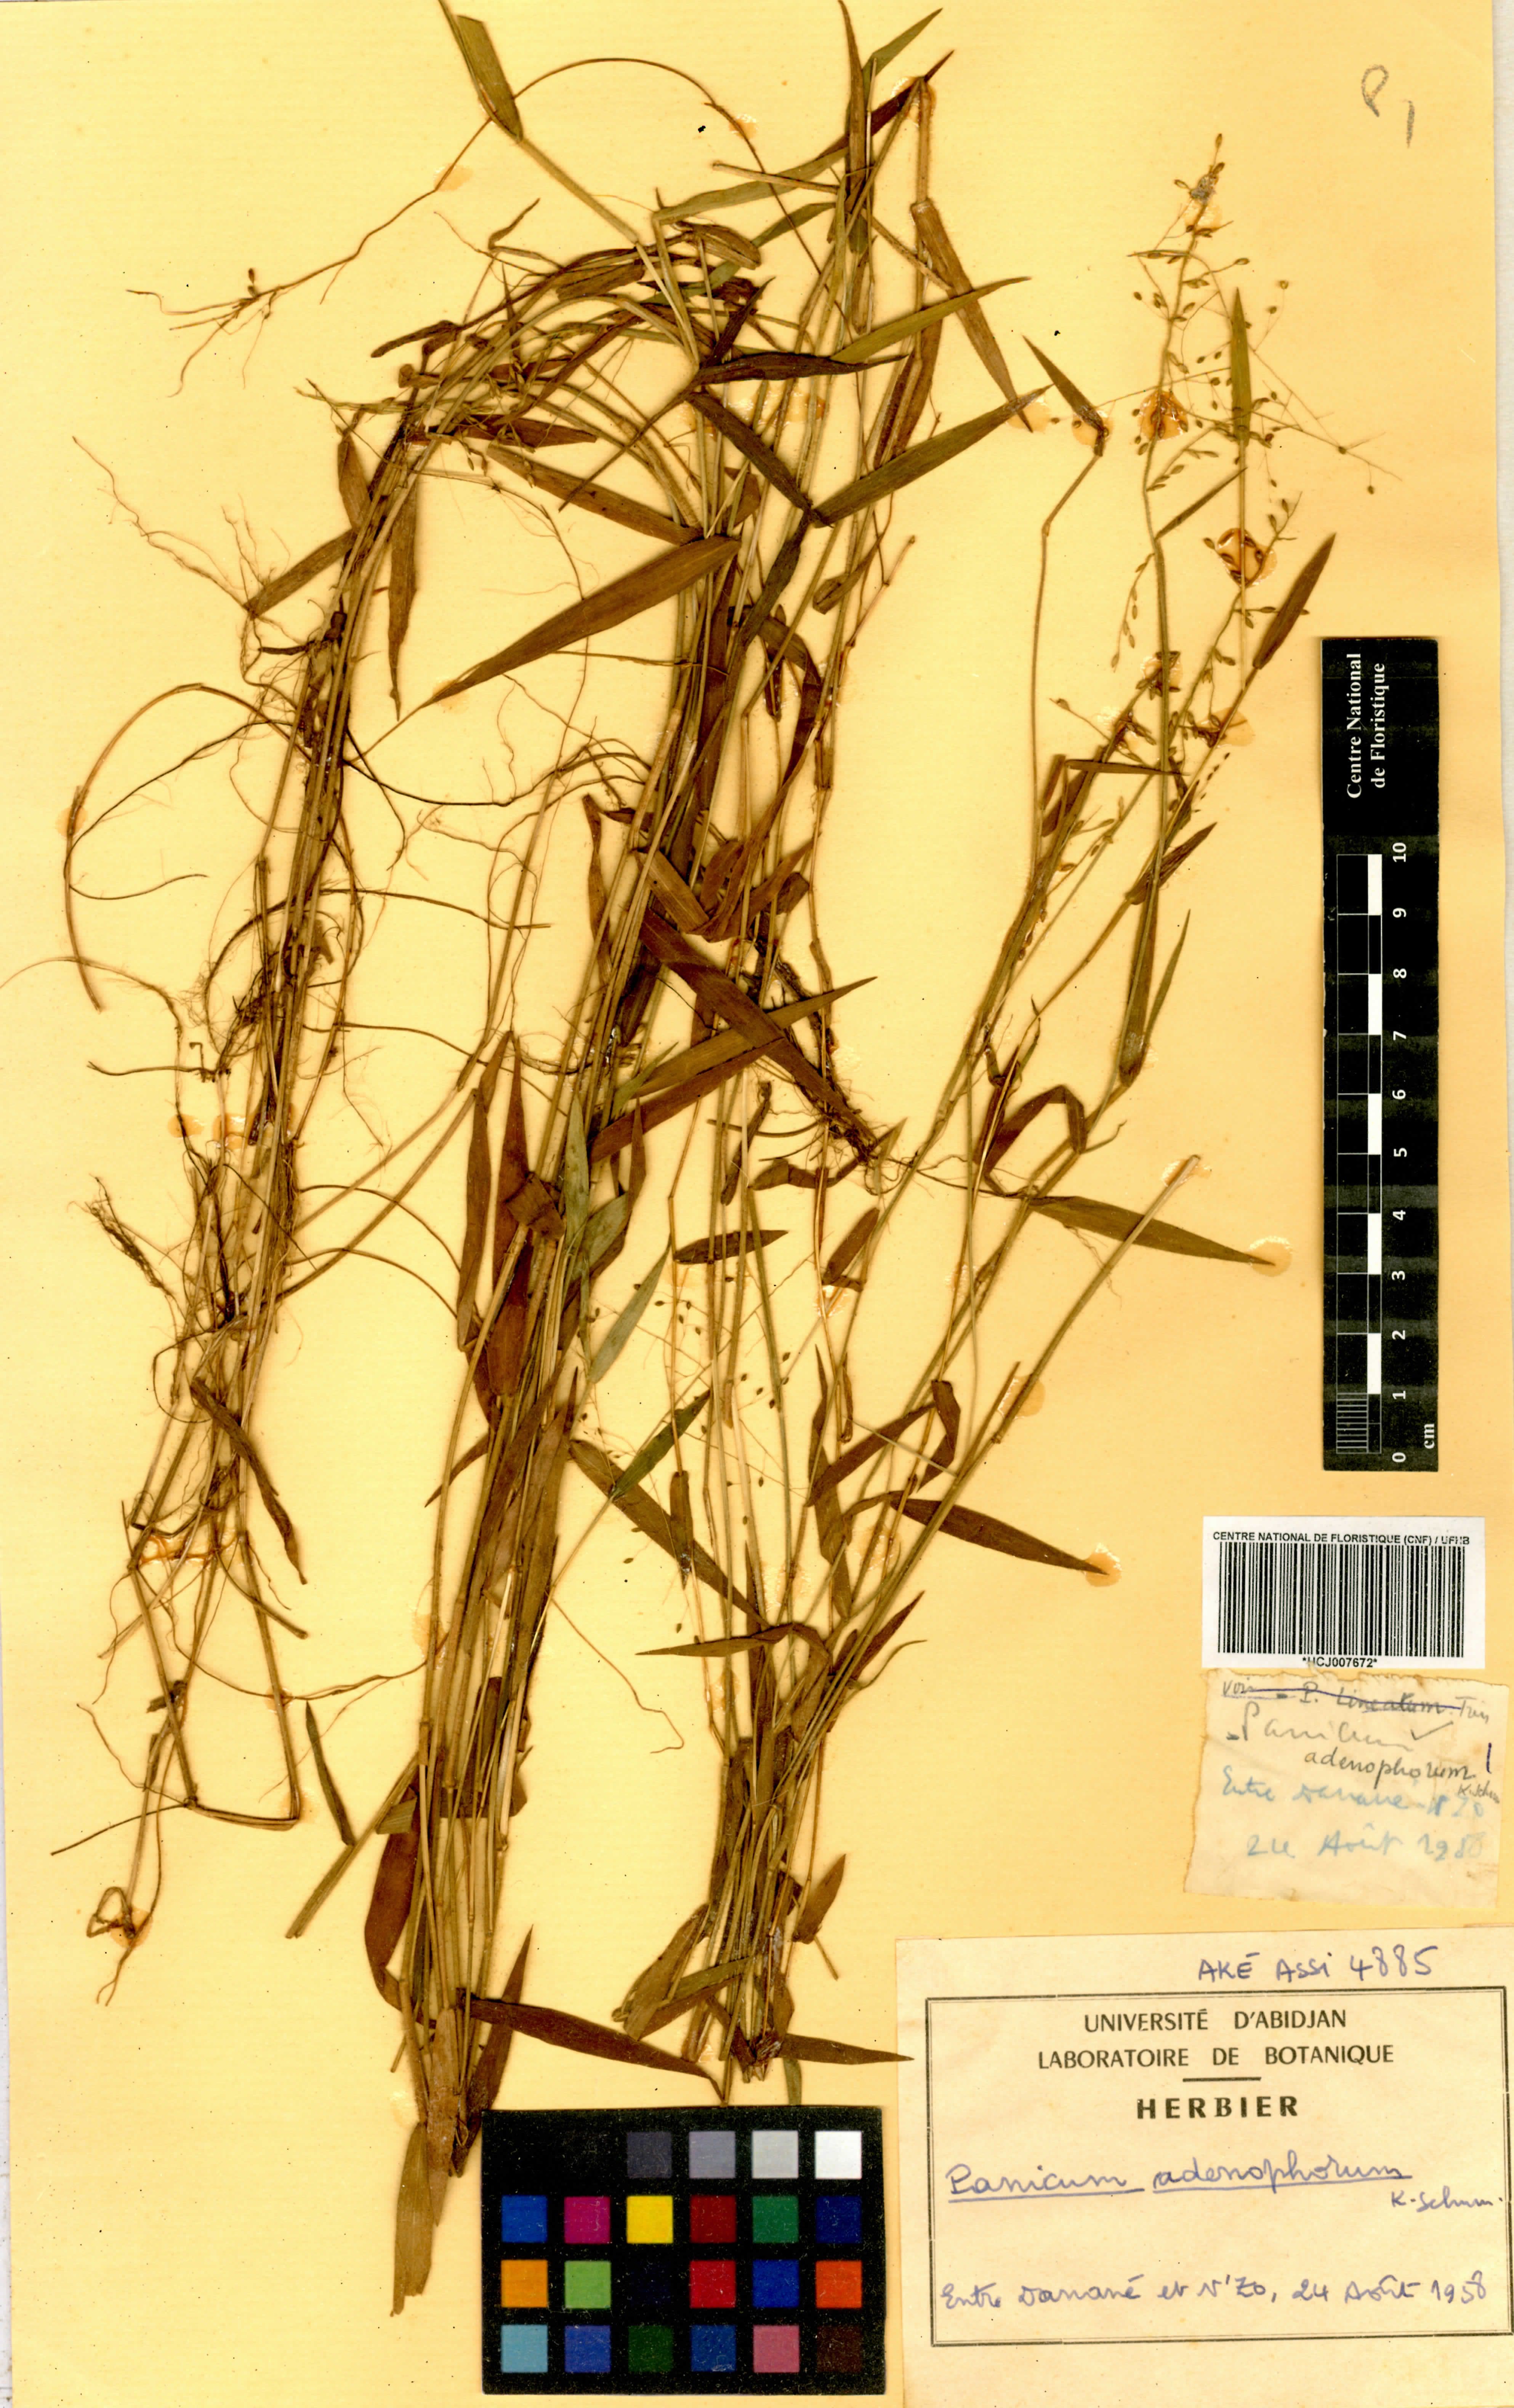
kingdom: Plantae
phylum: Tracheophyta
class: Liliopsida
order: Poales
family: Poaceae
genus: Adenochloa
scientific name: Adenochloa adenophora
